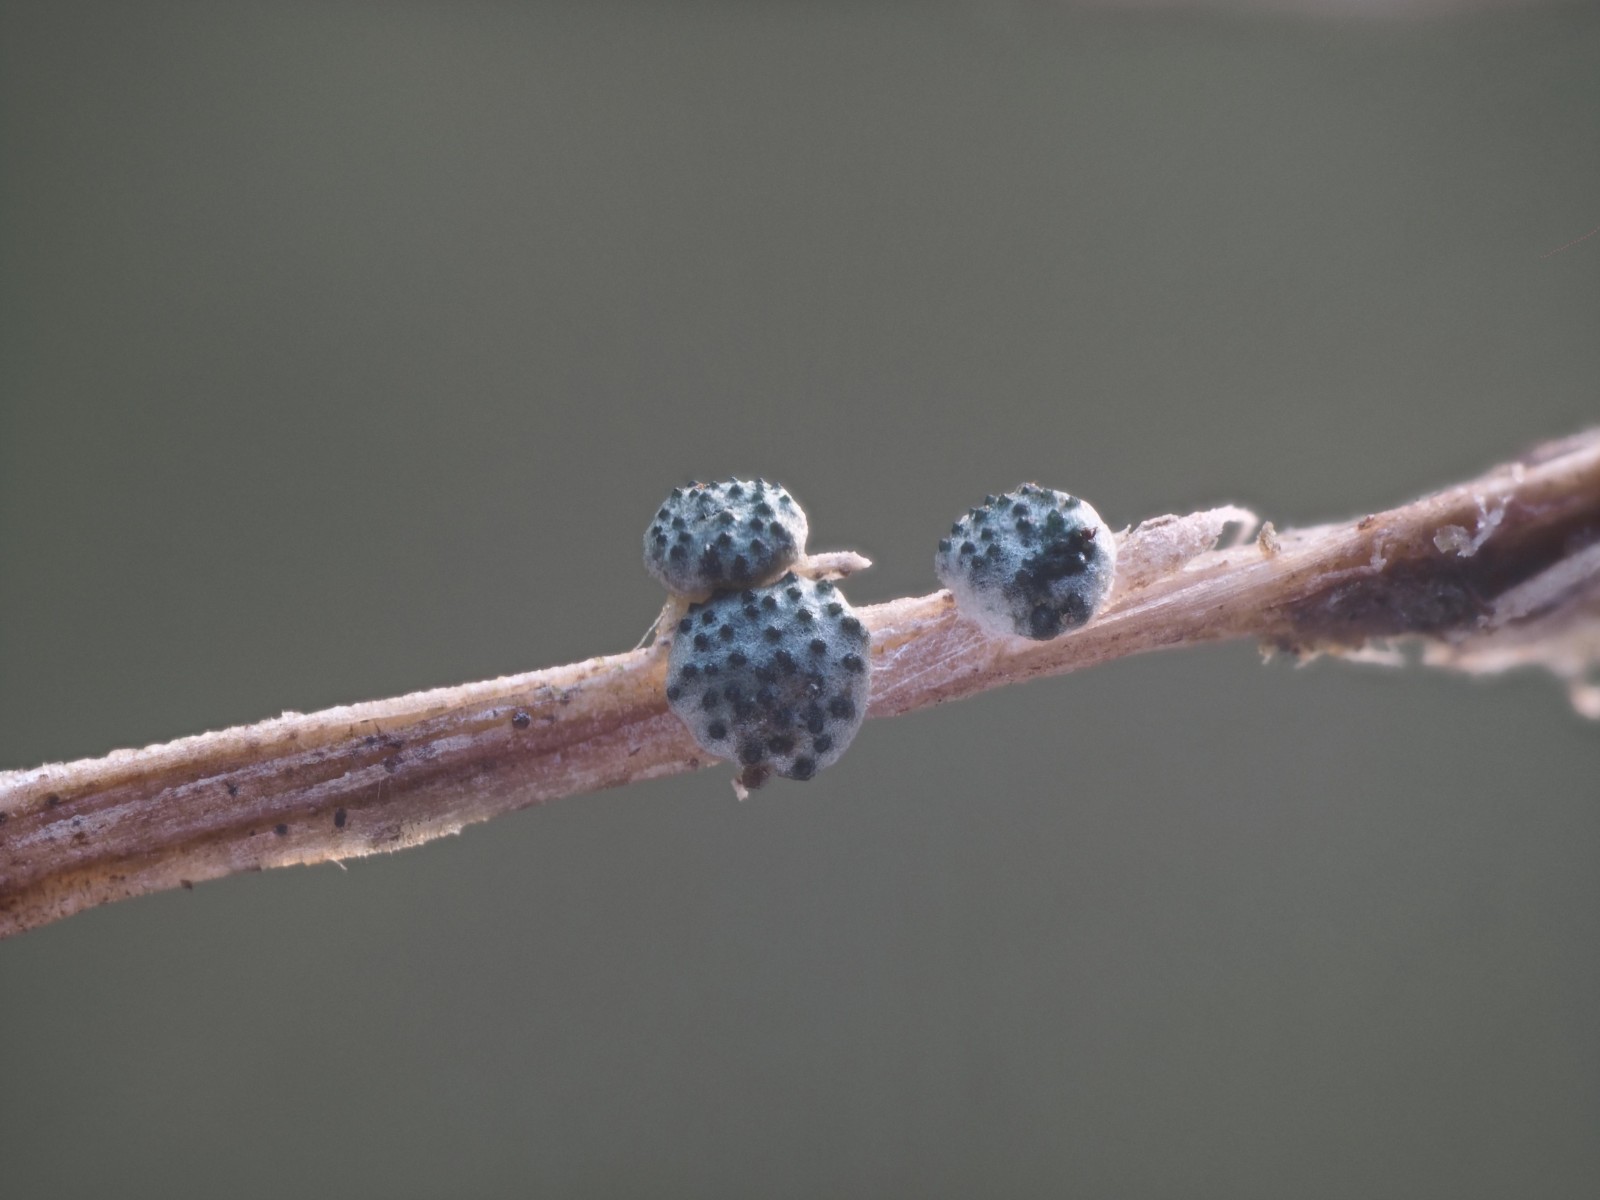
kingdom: Fungi
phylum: Ascomycota
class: Sordariomycetes
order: Hypocreales
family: Hypocreaceae
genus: Trichoderma
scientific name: Trichoderma spinulosum
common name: grågrøn kødkerne
